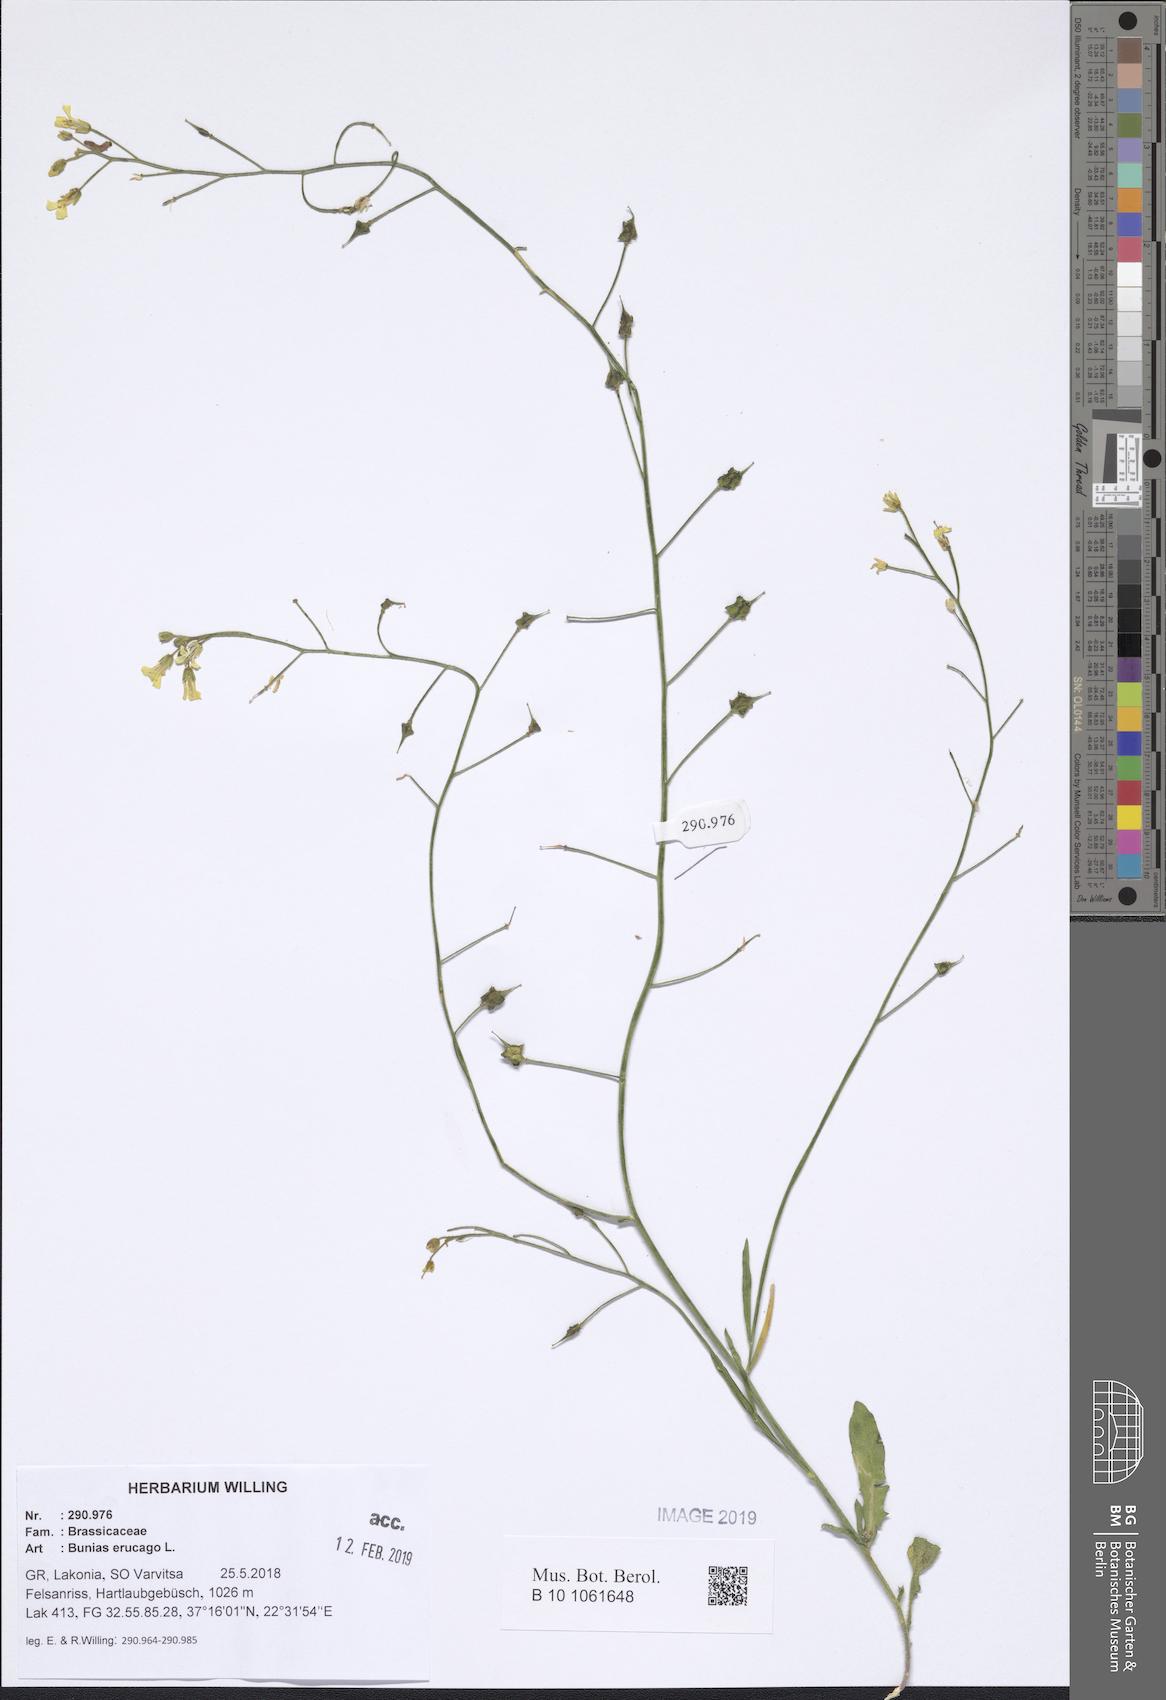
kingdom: Plantae
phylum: Tracheophyta
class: Magnoliopsida
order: Brassicales
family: Brassicaceae
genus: Bunias
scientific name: Bunias erucago
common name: Southern warty-cabbage
